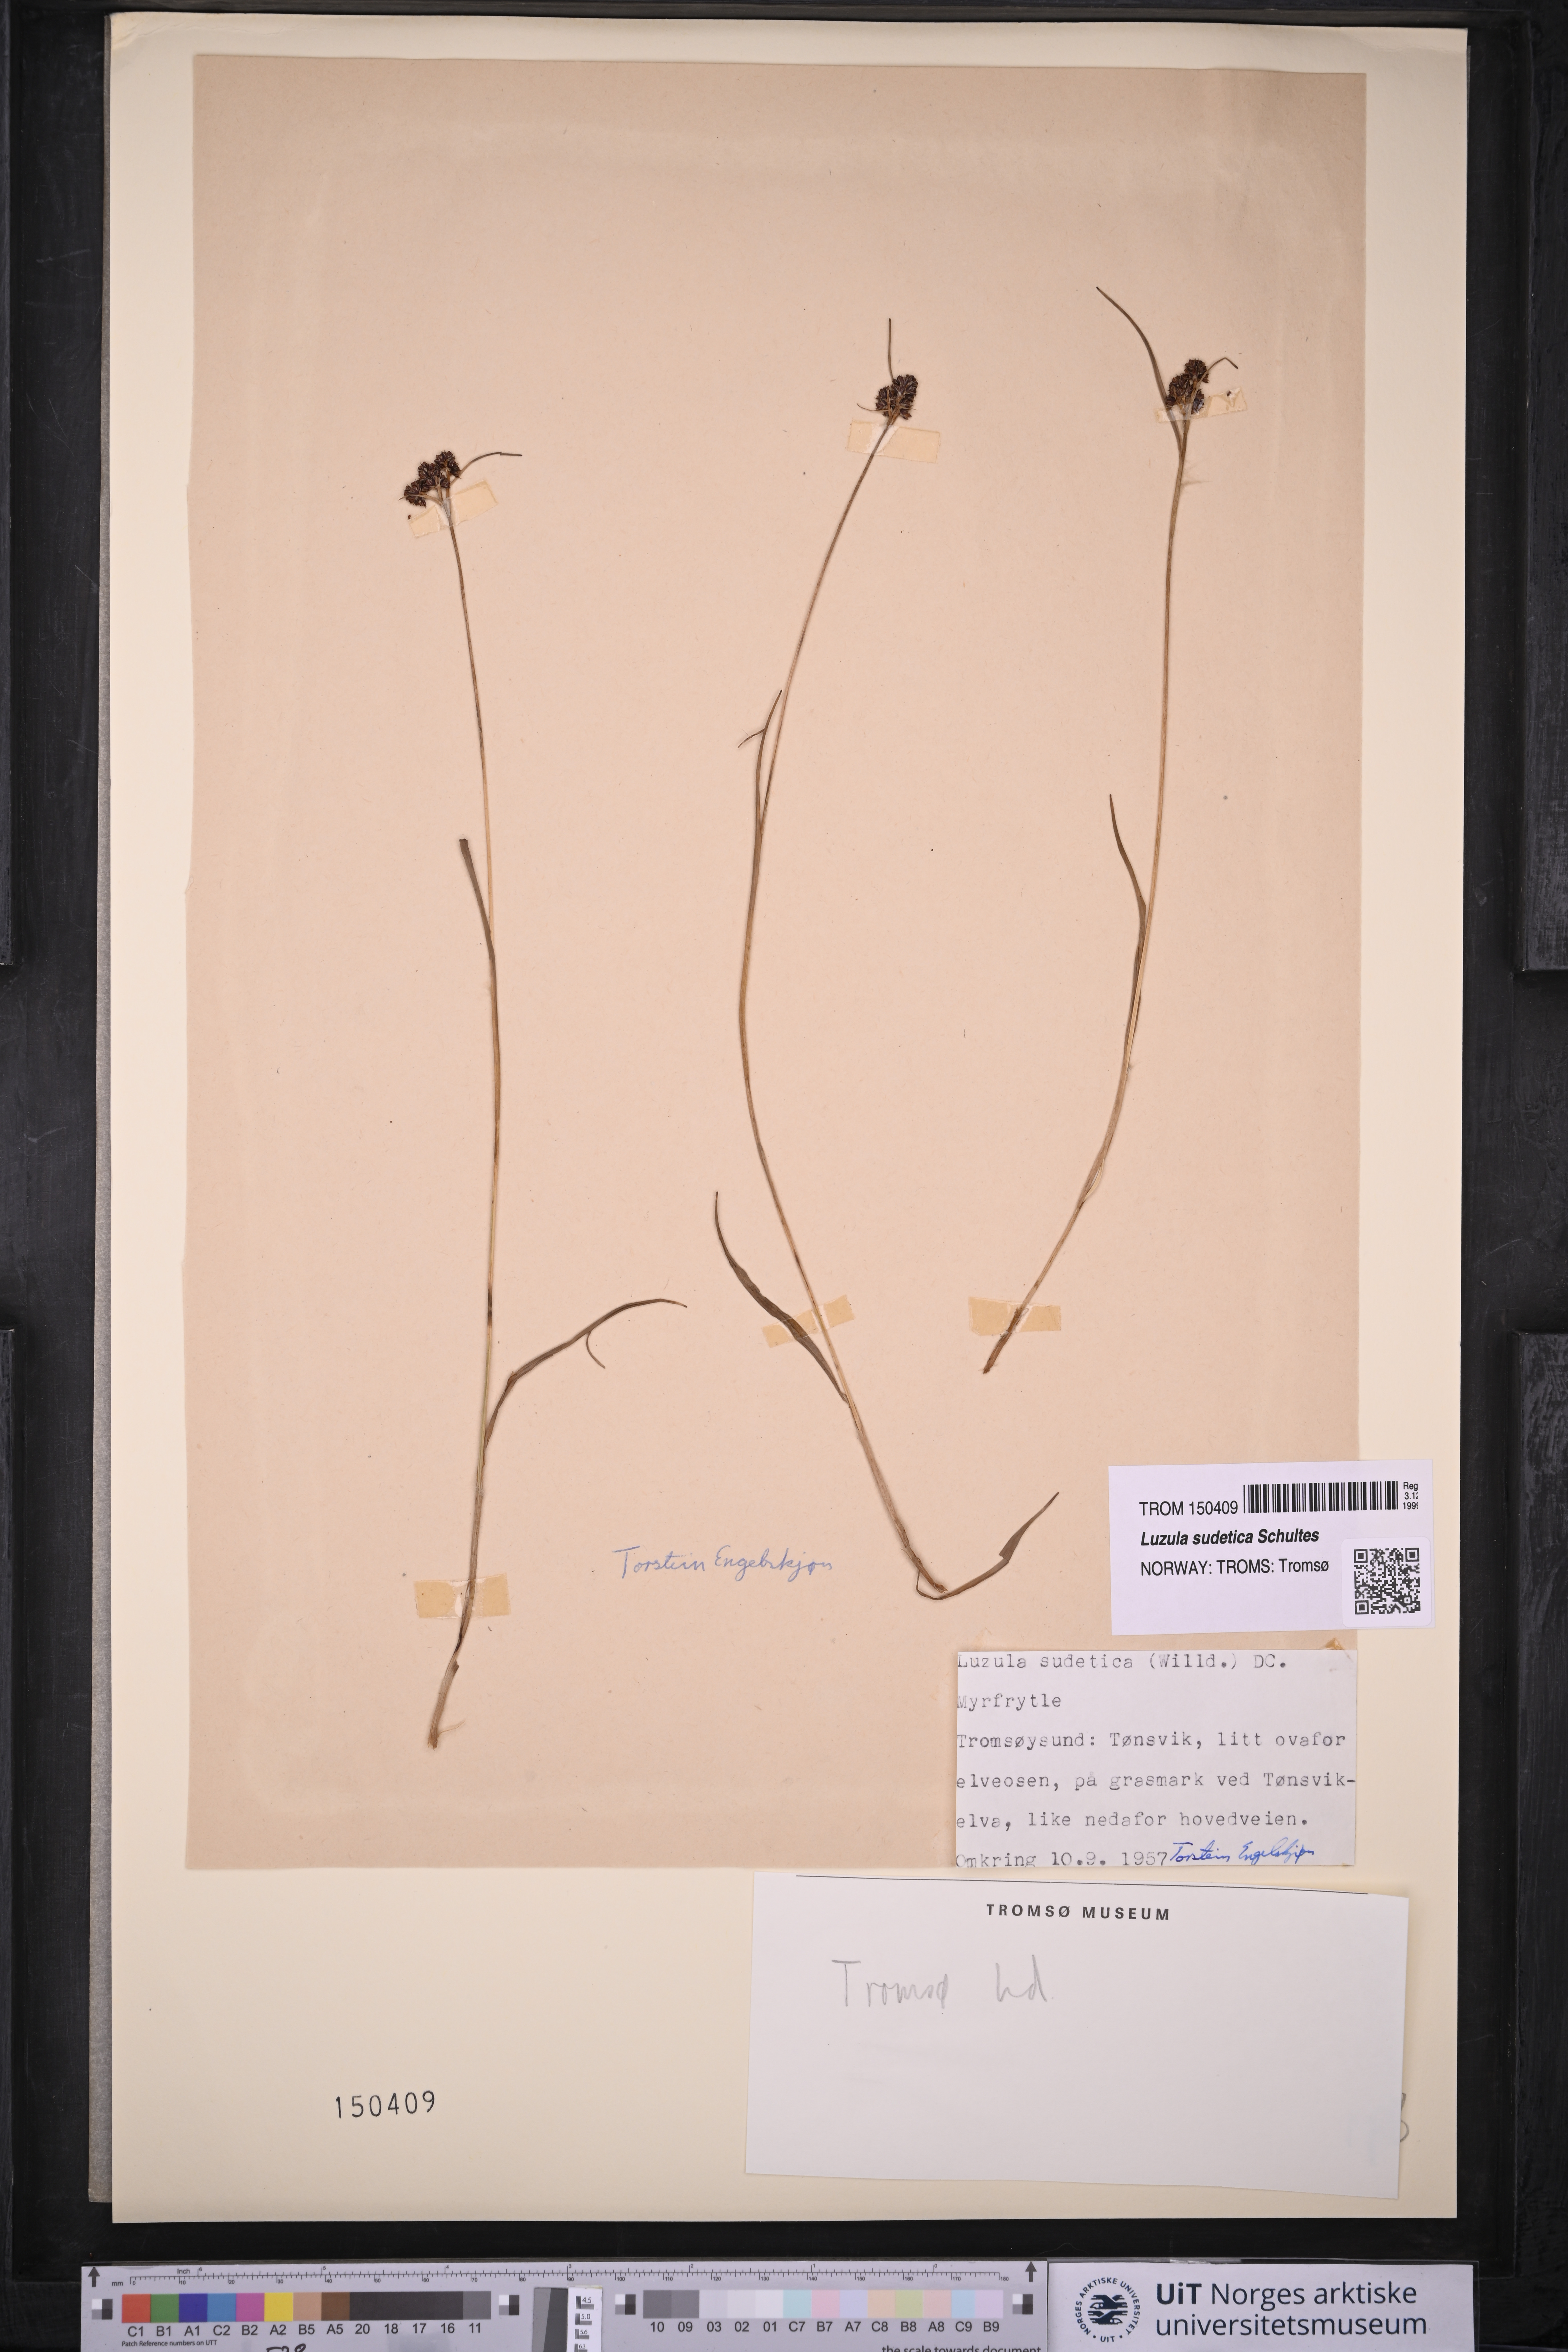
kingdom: Plantae
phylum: Tracheophyta
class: Liliopsida
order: Poales
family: Juncaceae
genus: Luzula
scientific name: Luzula sudetica
